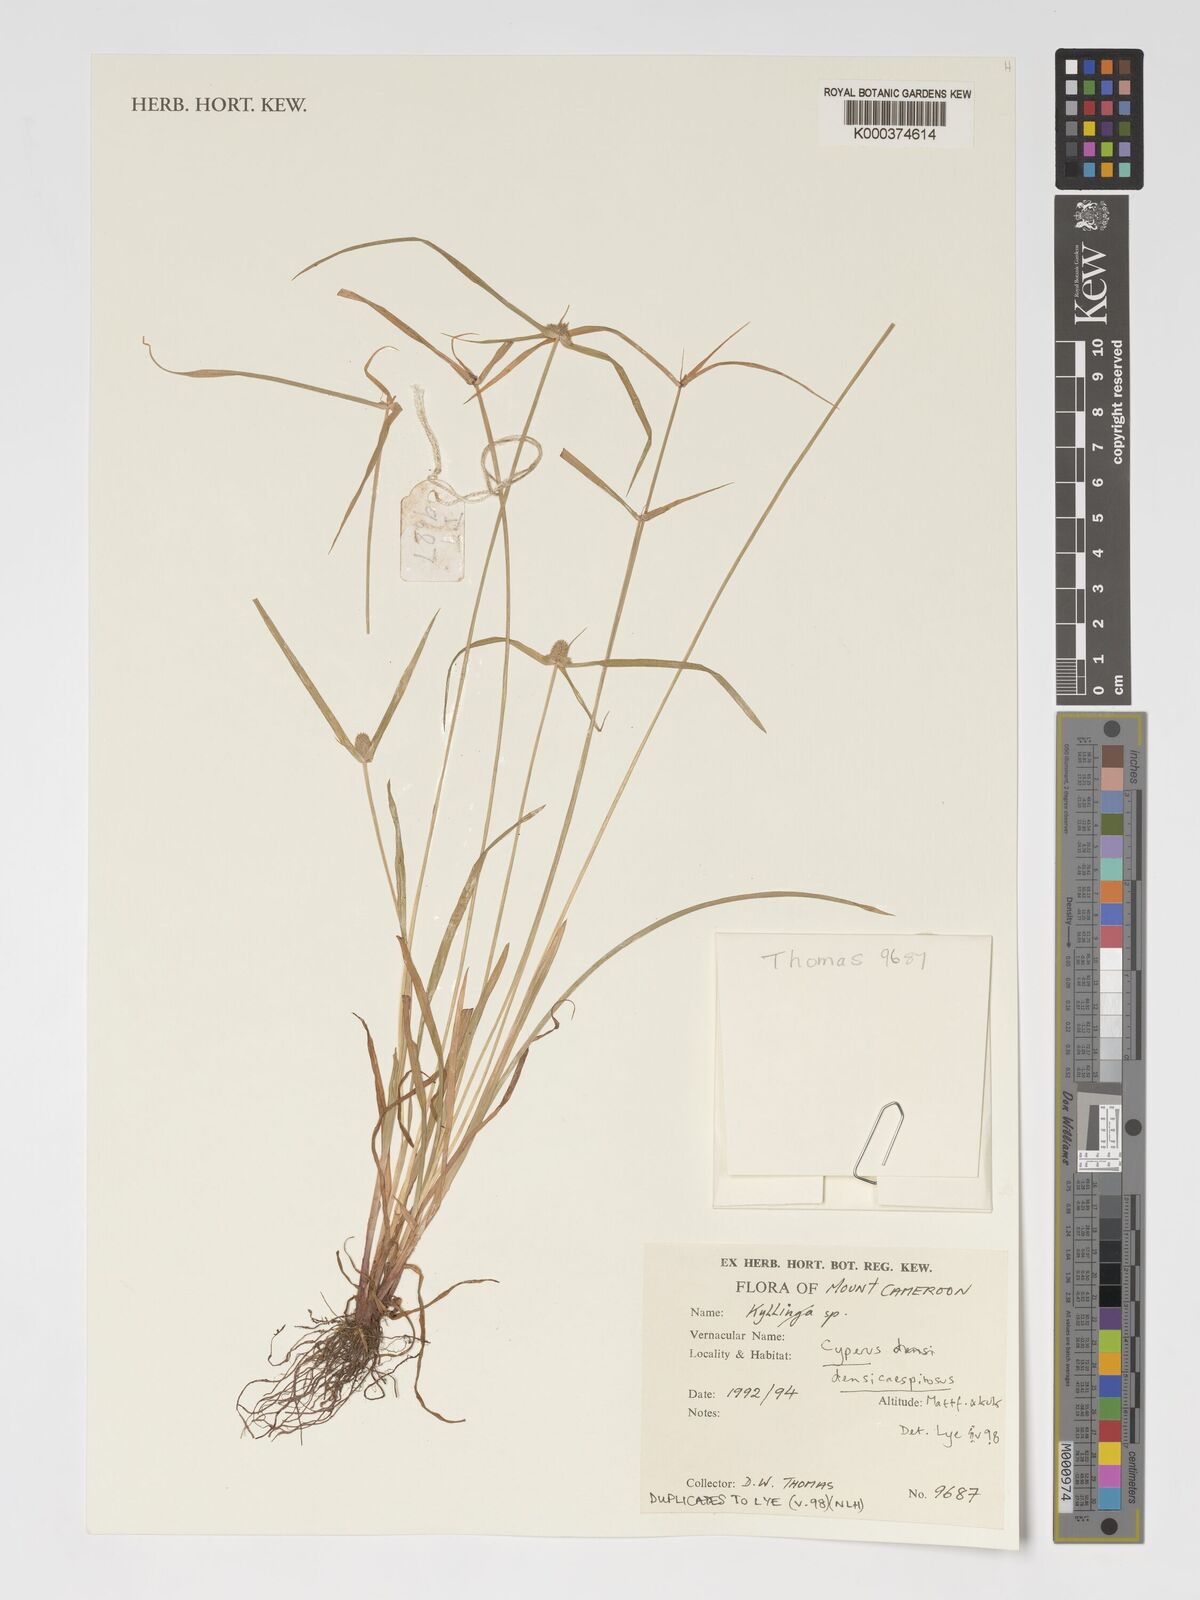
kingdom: Plantae
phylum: Tracheophyta
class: Liliopsida
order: Poales
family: Cyperaceae
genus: Cyperus
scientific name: Cyperus hortensis
